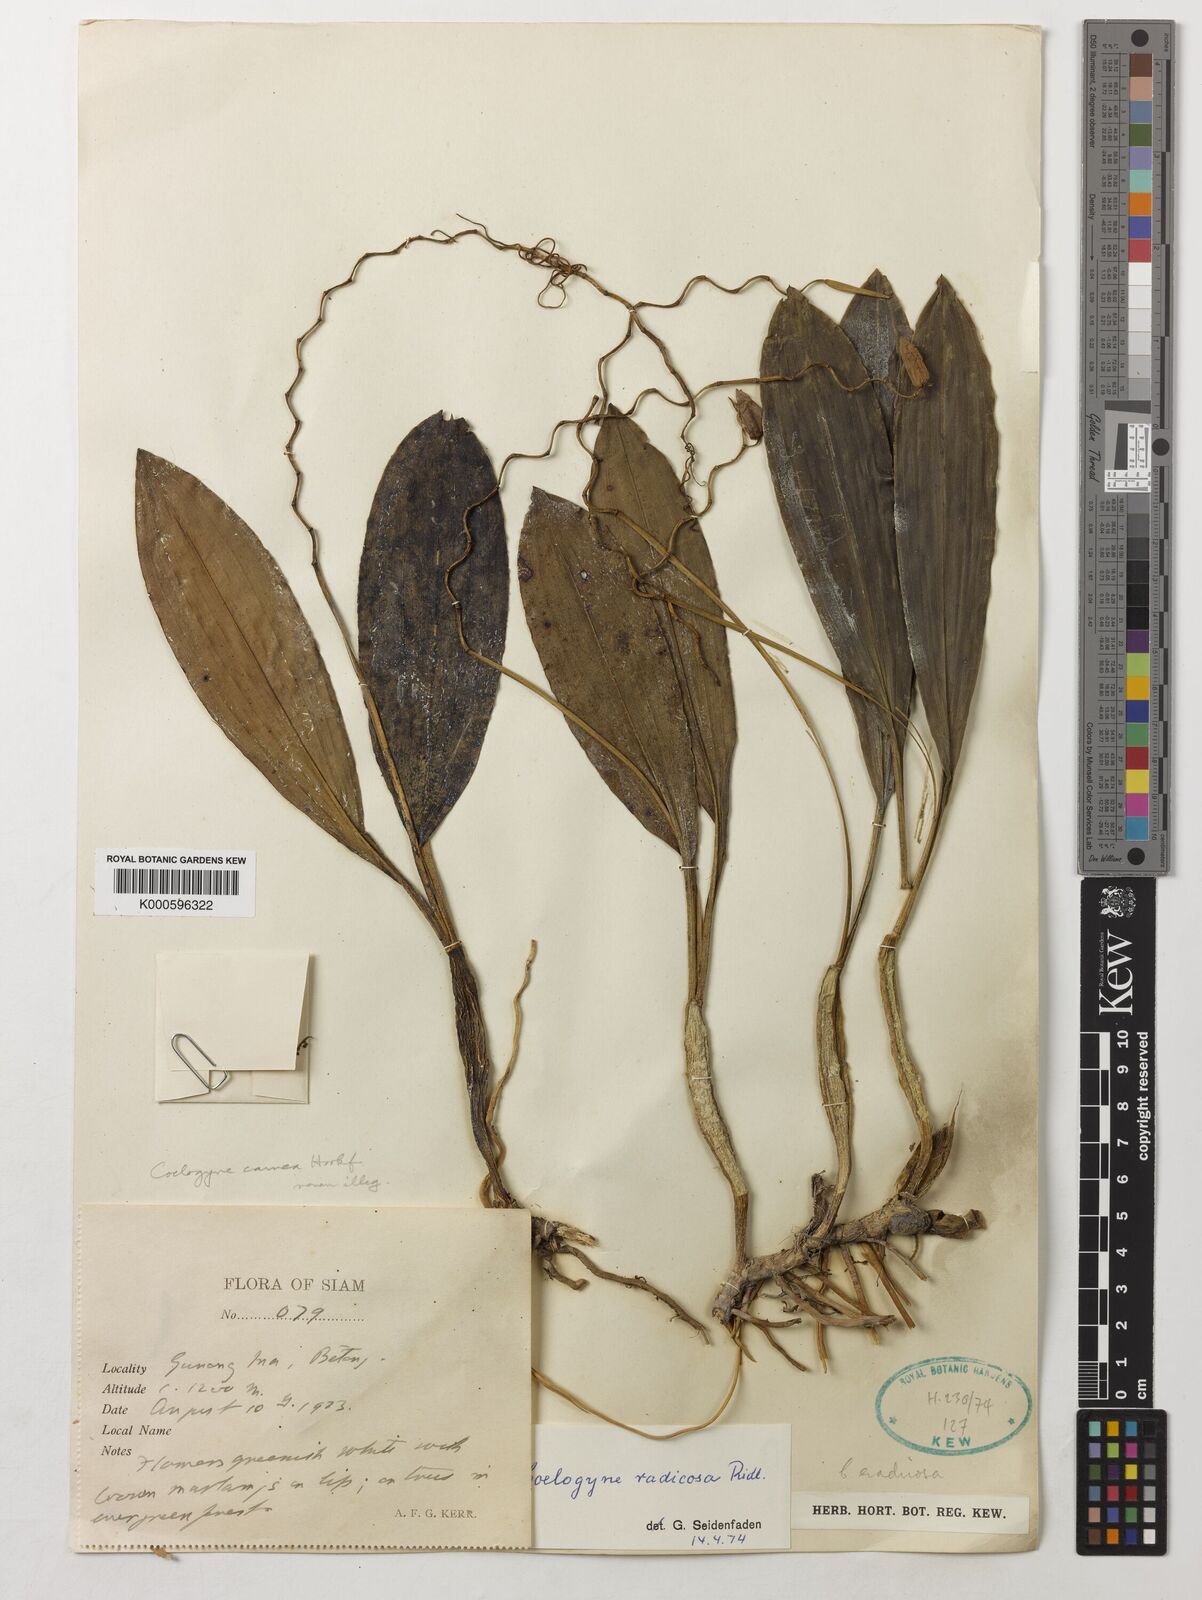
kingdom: Plantae
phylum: Tracheophyta
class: Liliopsida
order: Asparagales
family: Orchidaceae
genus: Coelogyne
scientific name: Coelogyne radicosa
